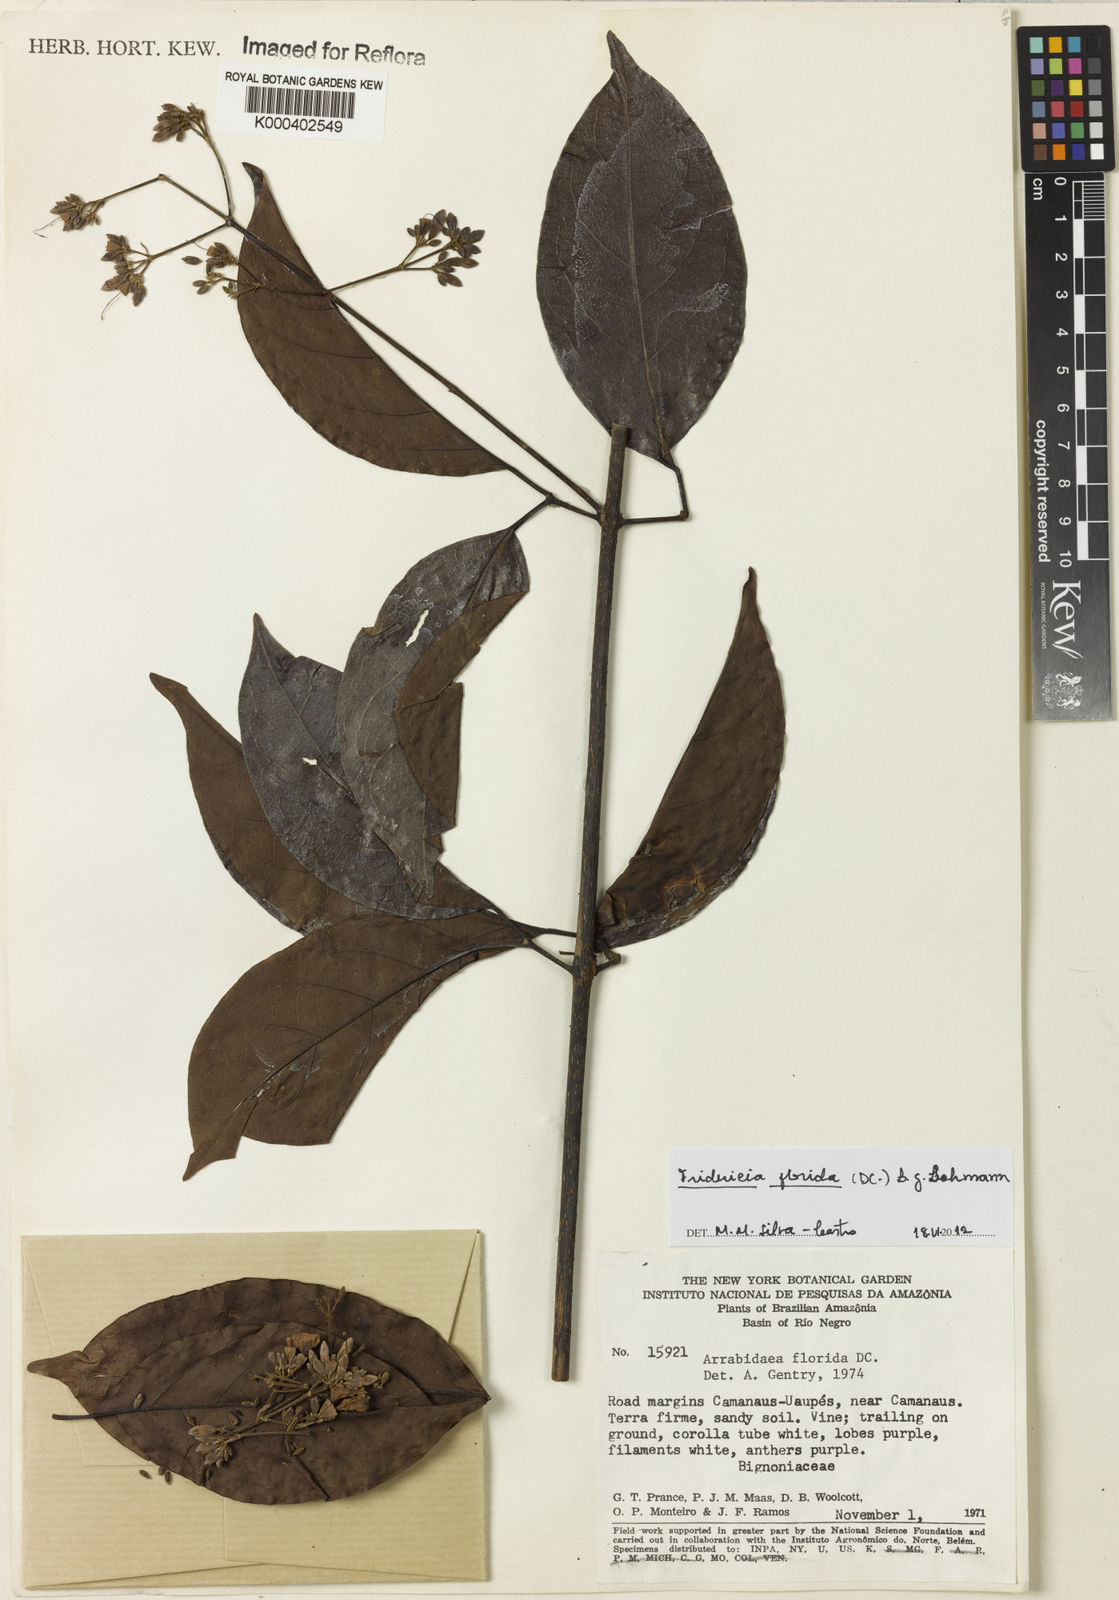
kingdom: Plantae
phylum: Tracheophyta
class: Magnoliopsida
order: Lamiales
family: Bignoniaceae
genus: Fridericia
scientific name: Fridericia florida
